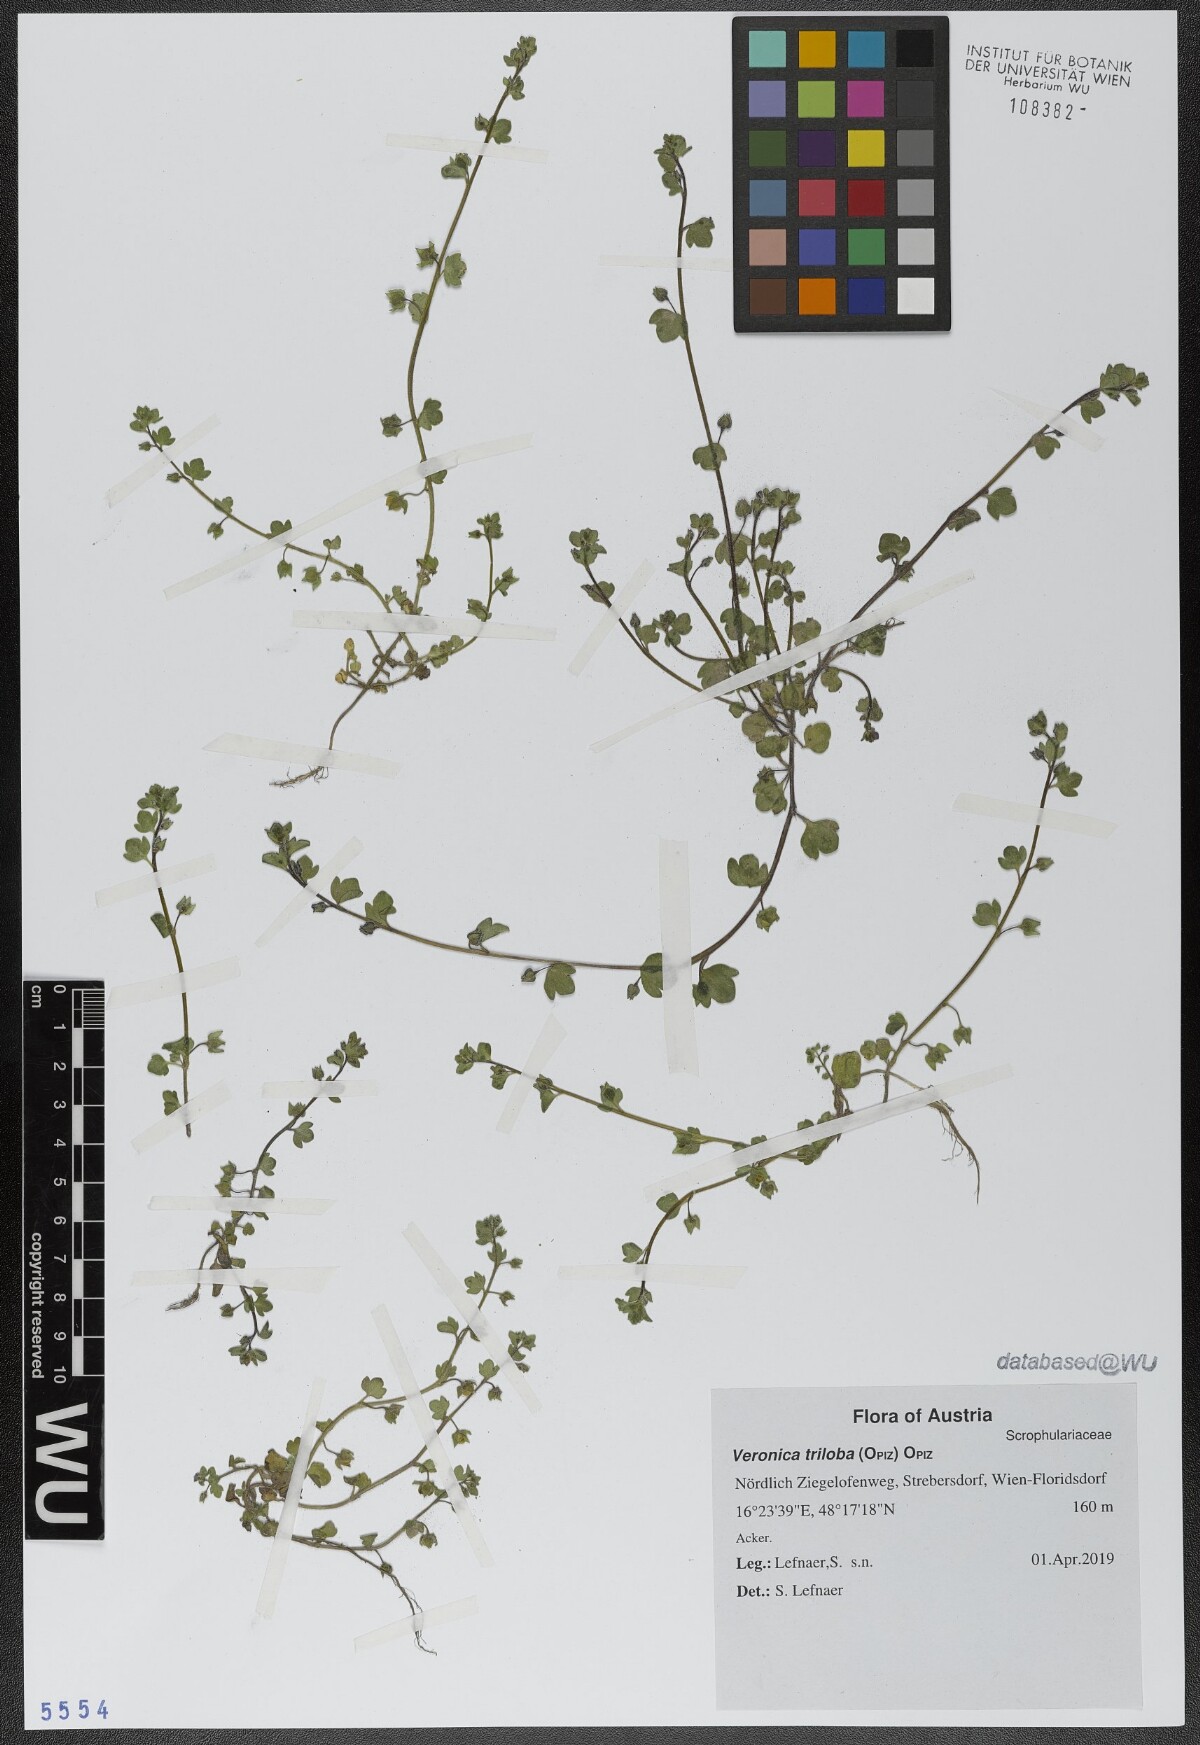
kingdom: Plantae
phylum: Tracheophyta
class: Magnoliopsida
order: Lamiales
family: Plantaginaceae
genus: Veronica
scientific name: Veronica triloba
